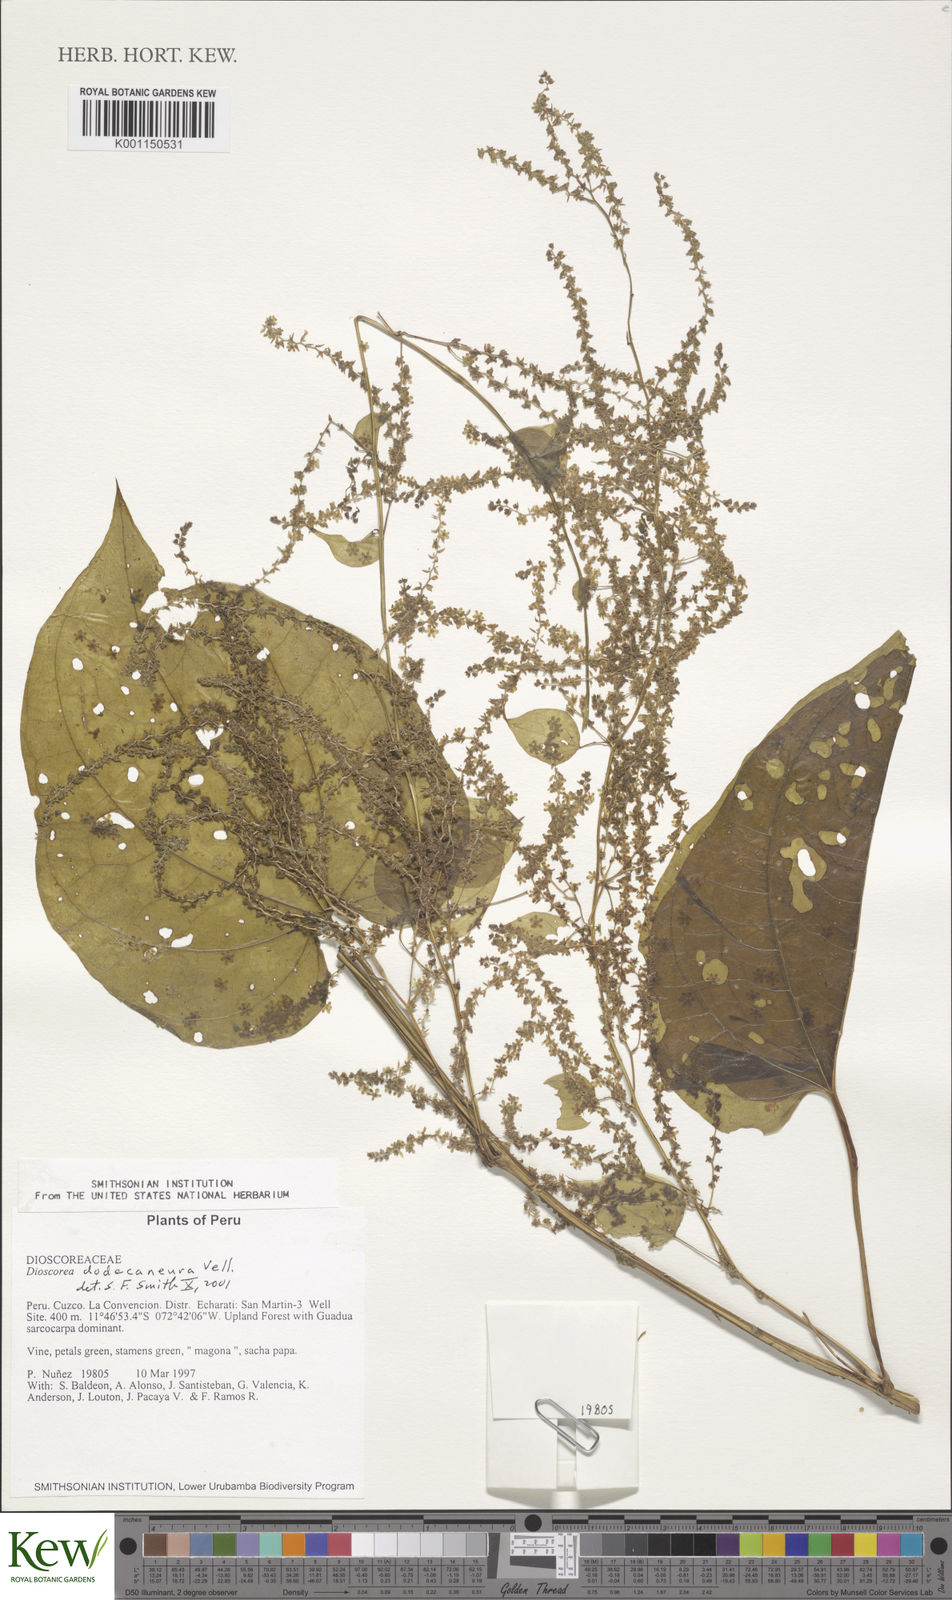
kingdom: Plantae
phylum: Tracheophyta
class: Liliopsida
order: Dioscoreales
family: Dioscoreaceae
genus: Dioscorea
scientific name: Dioscorea rumicoides
